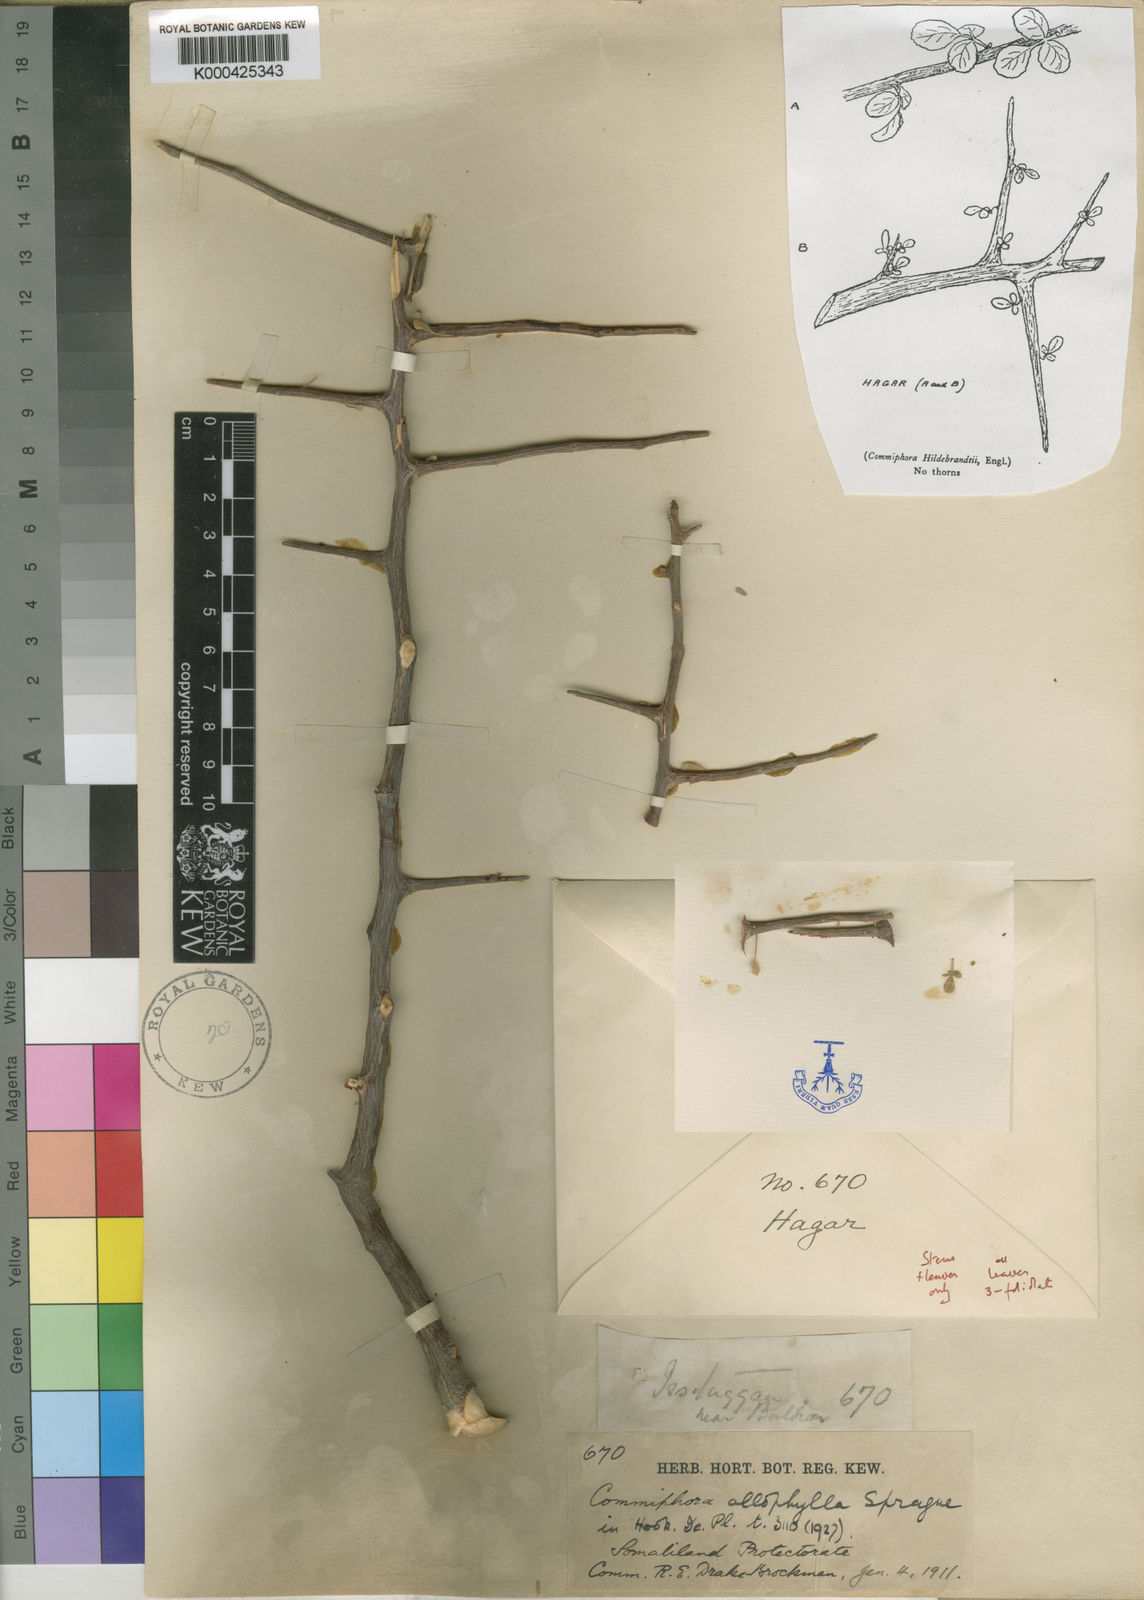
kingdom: Plantae
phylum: Tracheophyta
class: Magnoliopsida
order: Sapindales
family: Burseraceae
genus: Commiphora
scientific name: Commiphora kataf
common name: Bisabol myrrh
